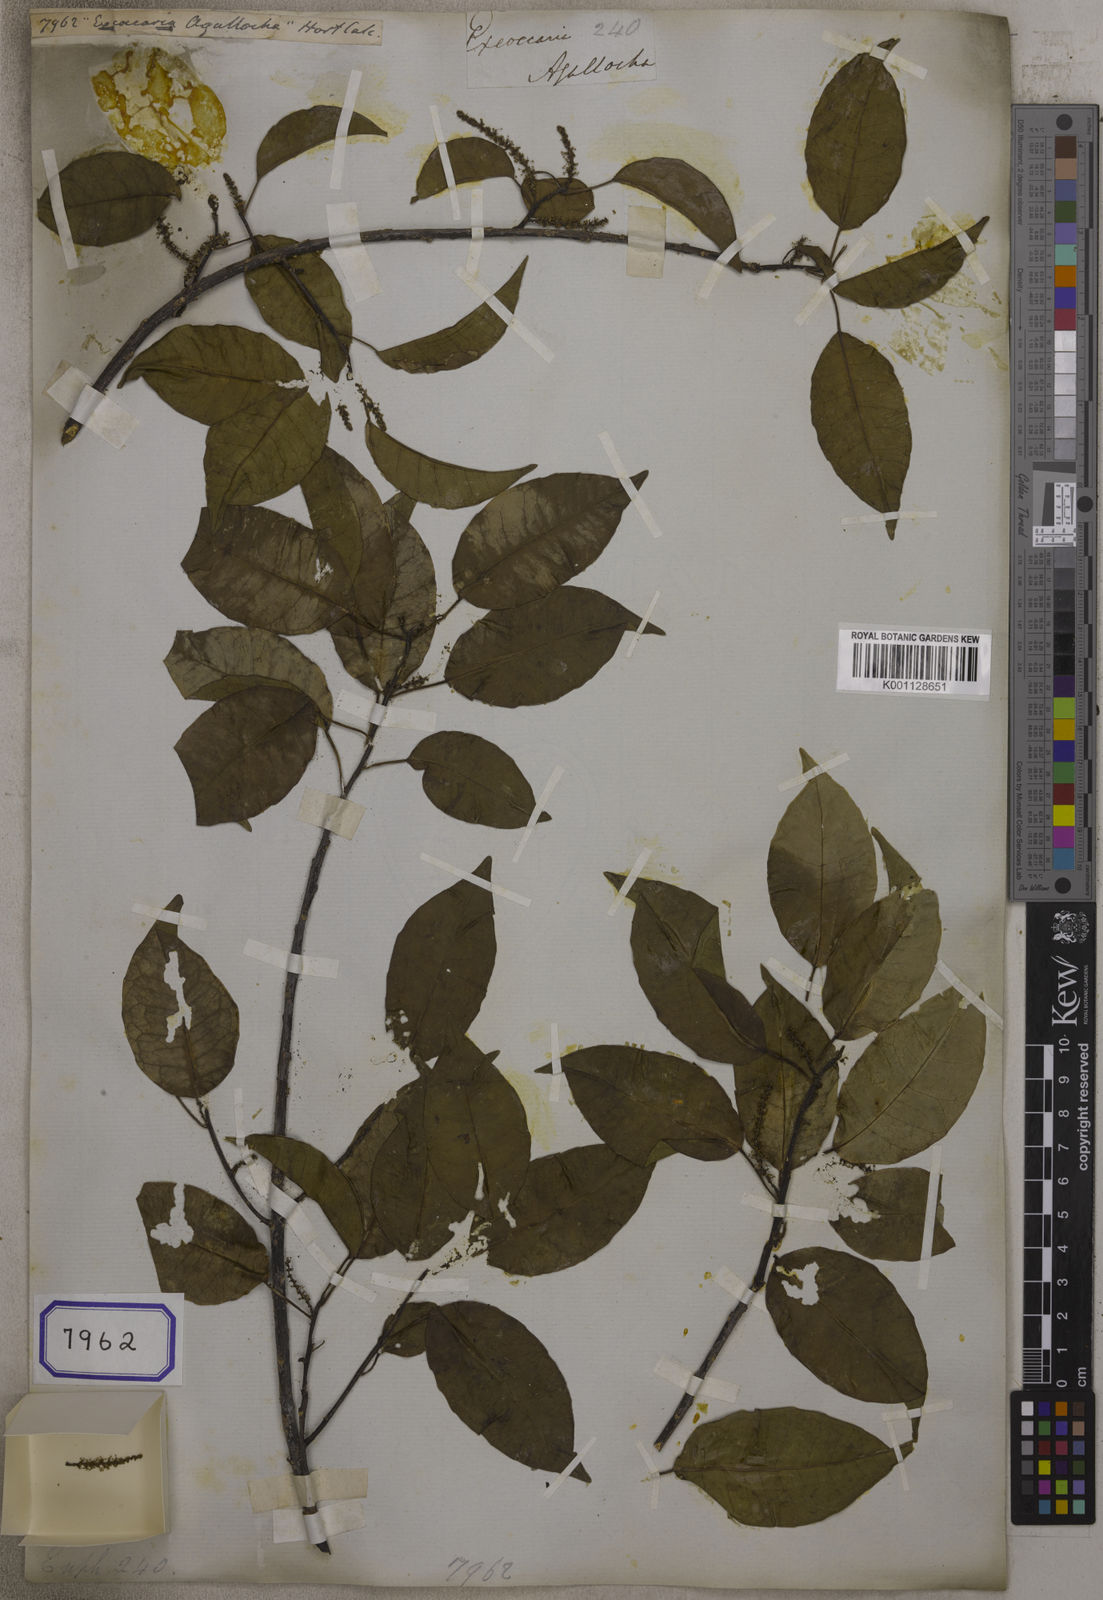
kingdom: Plantae
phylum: Tracheophyta
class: Magnoliopsida
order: Malpighiales
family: Euphorbiaceae
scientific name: Euphorbiaceae
